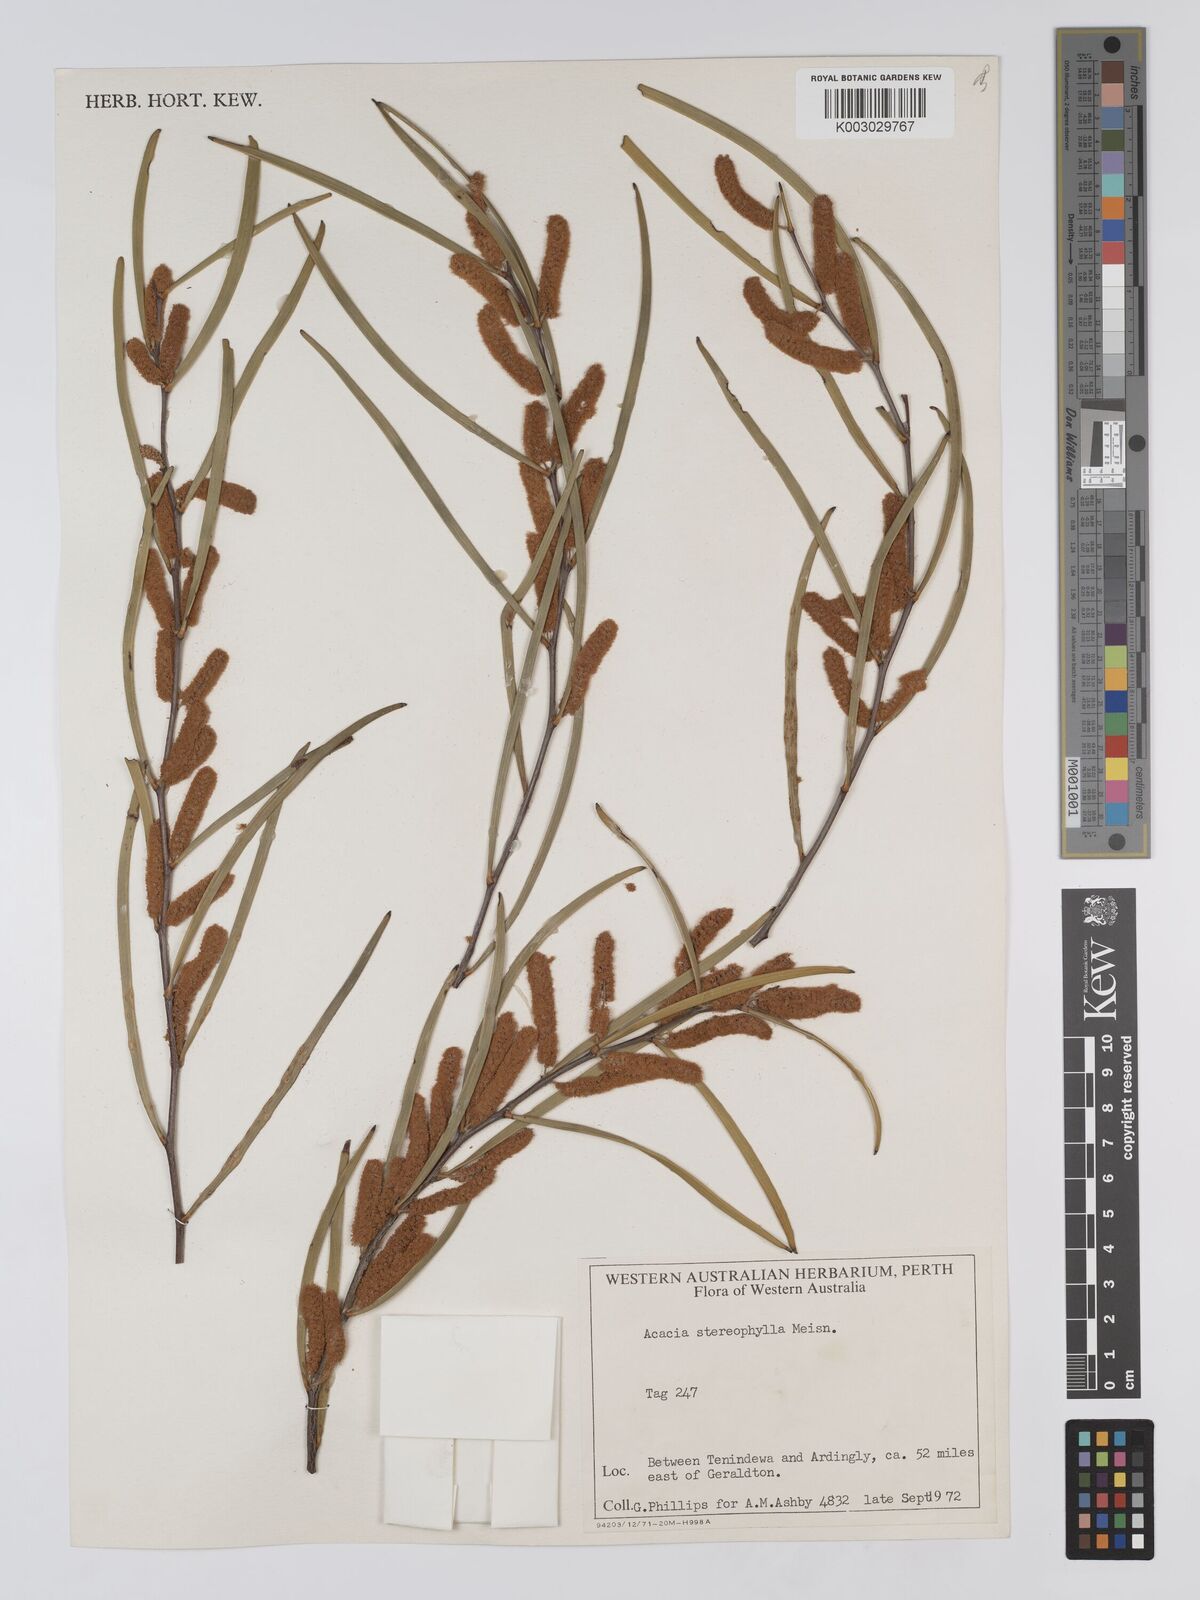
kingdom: Plantae
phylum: Tracheophyta
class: Magnoliopsida
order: Fabales
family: Fabaceae
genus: Acacia
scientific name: Acacia stereophylla
